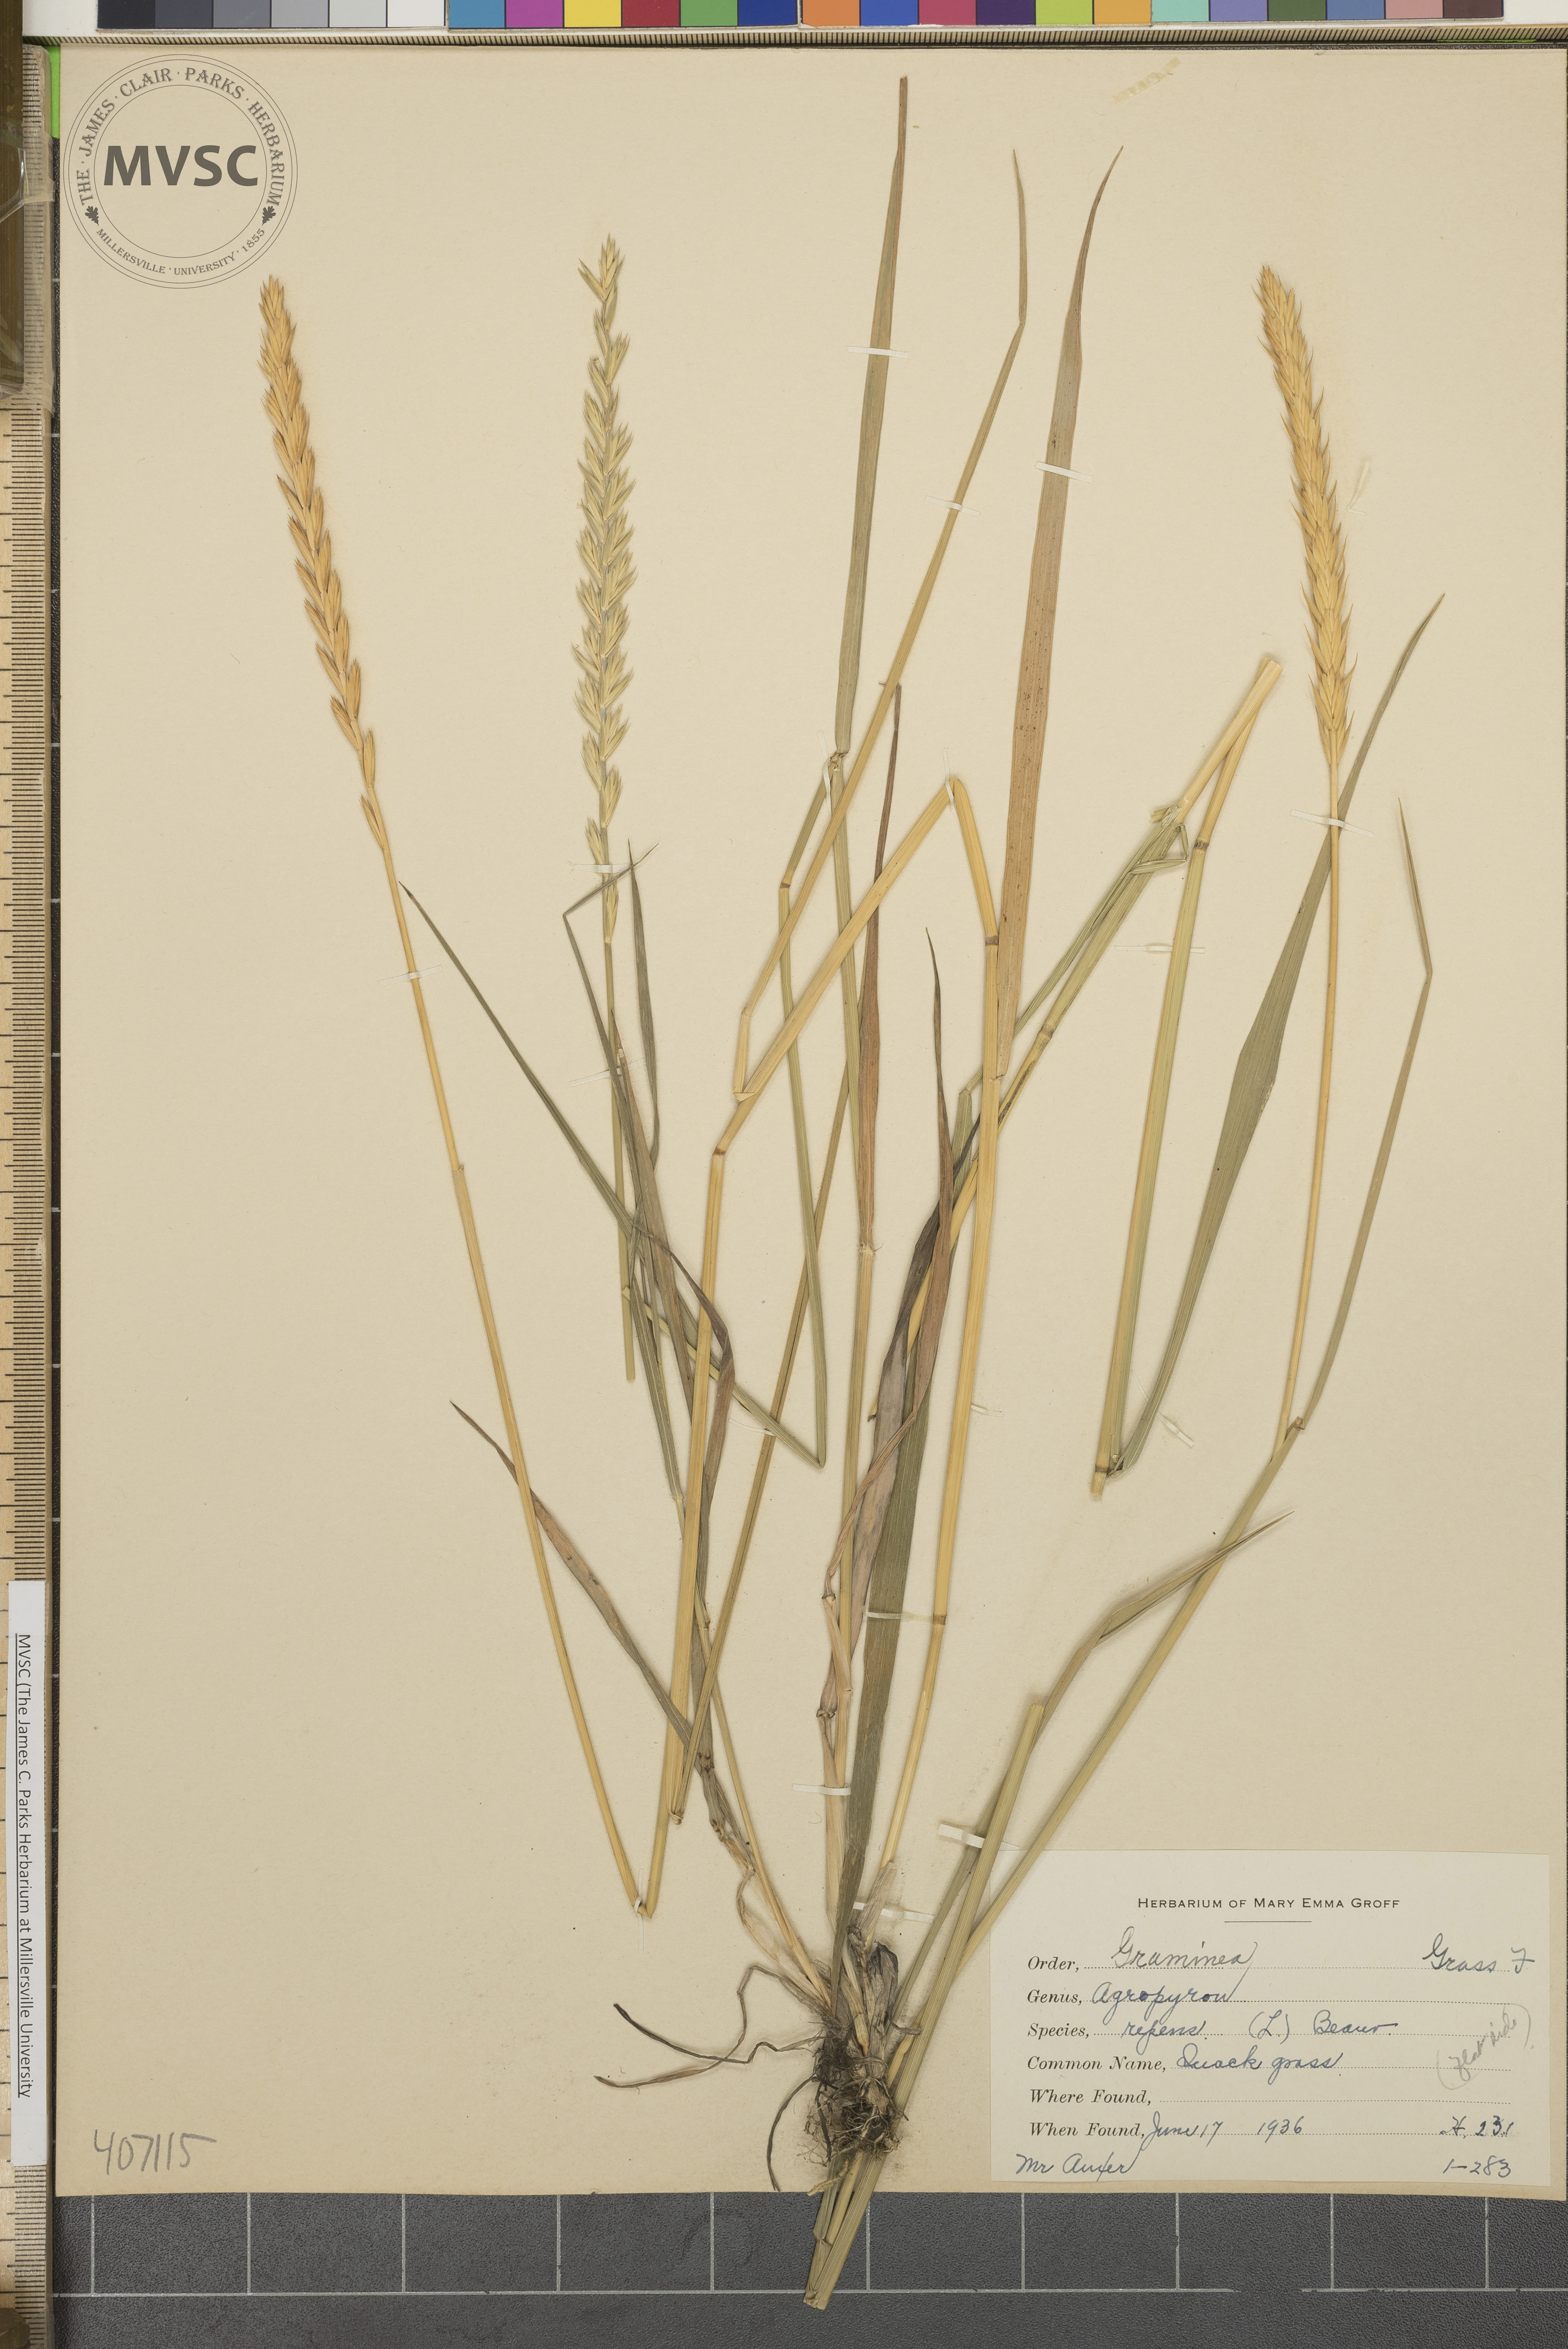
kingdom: Plantae
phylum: Tracheophyta
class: Liliopsida
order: Poales
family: Poaceae
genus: Elymus
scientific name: Elymus repens
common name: Quackgrass
